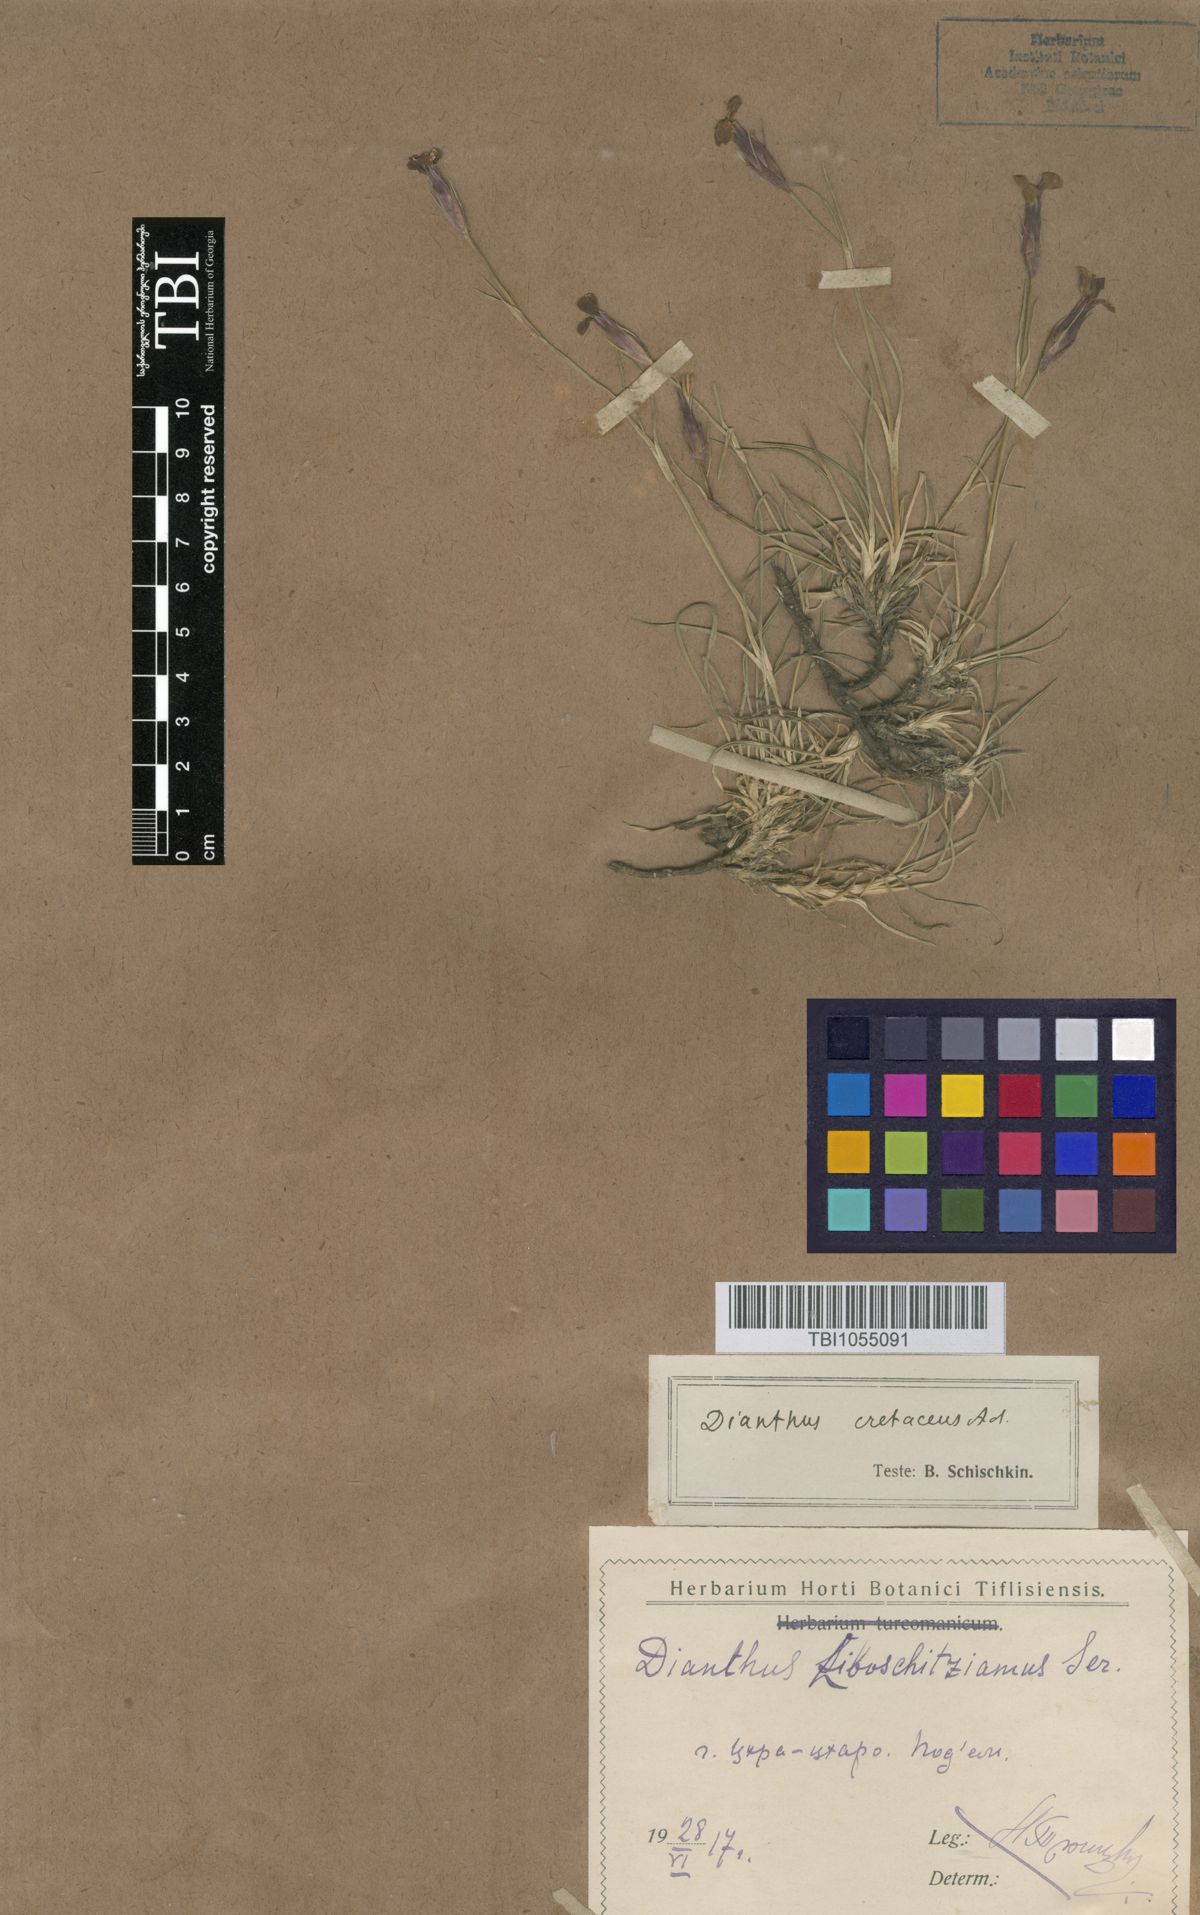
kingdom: Plantae
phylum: Tracheophyta
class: Magnoliopsida
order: Caryophyllales
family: Caryophyllaceae
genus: Dianthus
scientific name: Dianthus cretaceus
